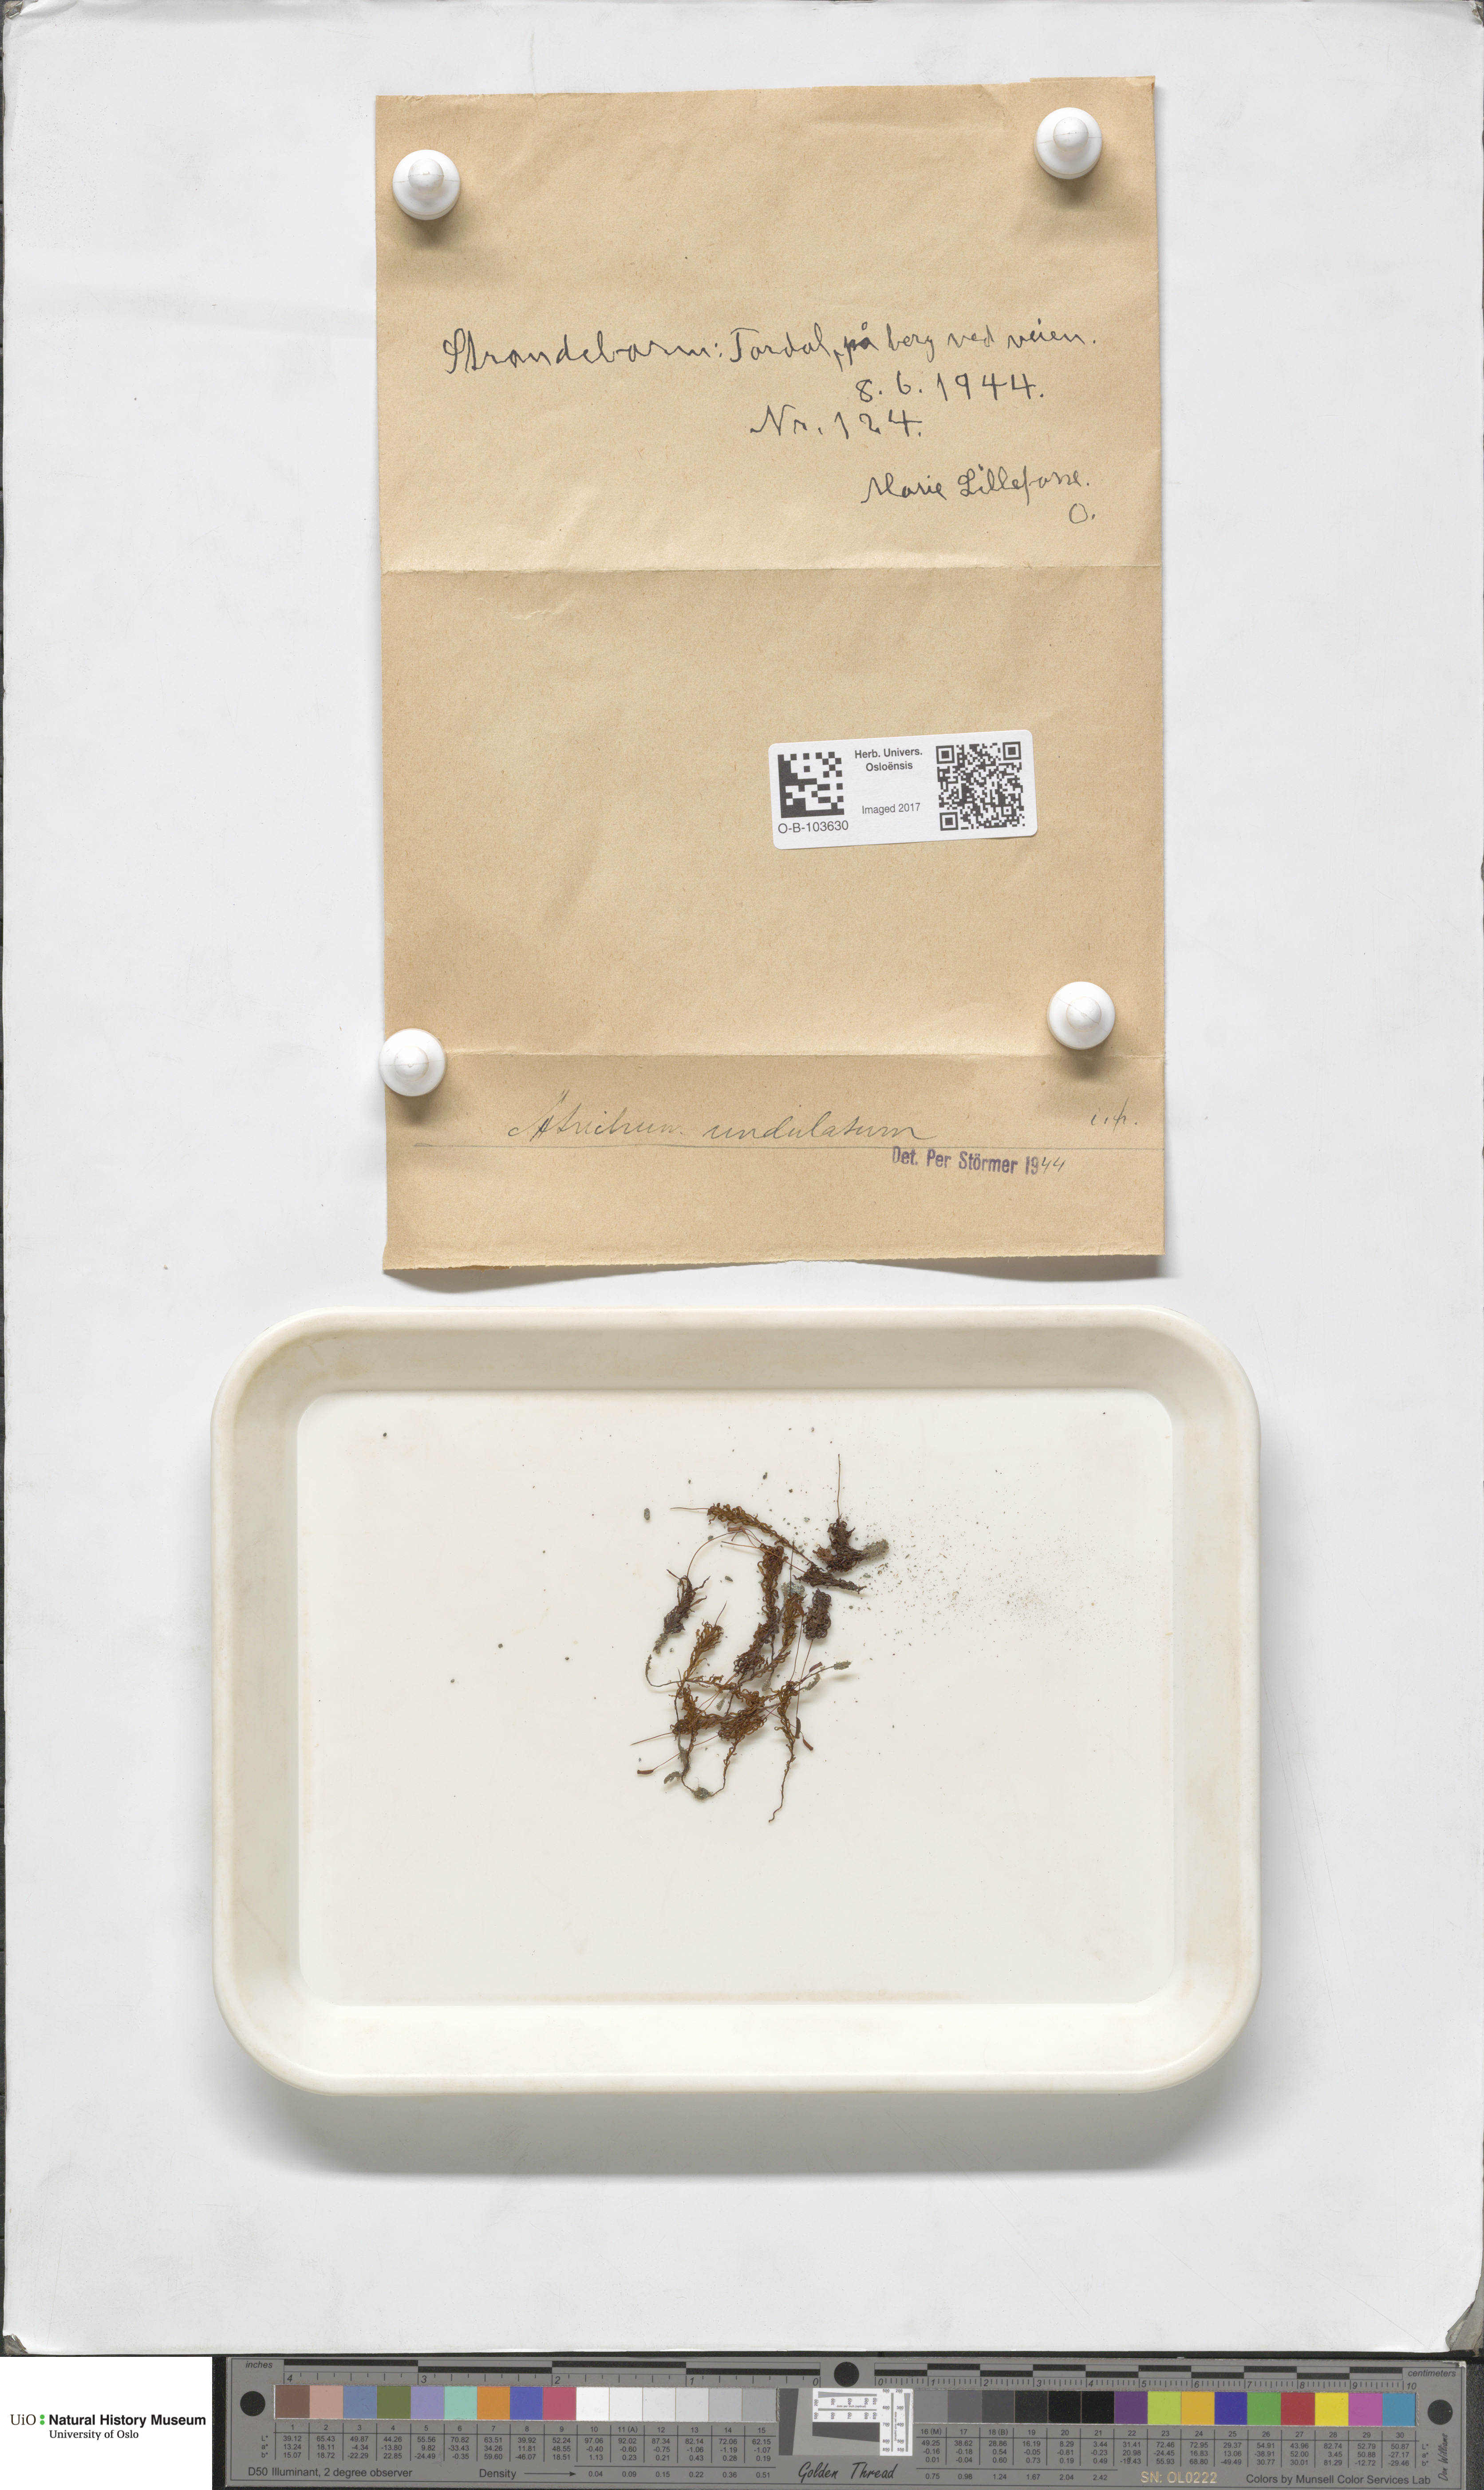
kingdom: Plantae
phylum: Bryophyta
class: Polytrichopsida
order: Polytrichales
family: Polytrichaceae
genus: Atrichum
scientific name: Atrichum undulatum
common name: Common smoothcap
